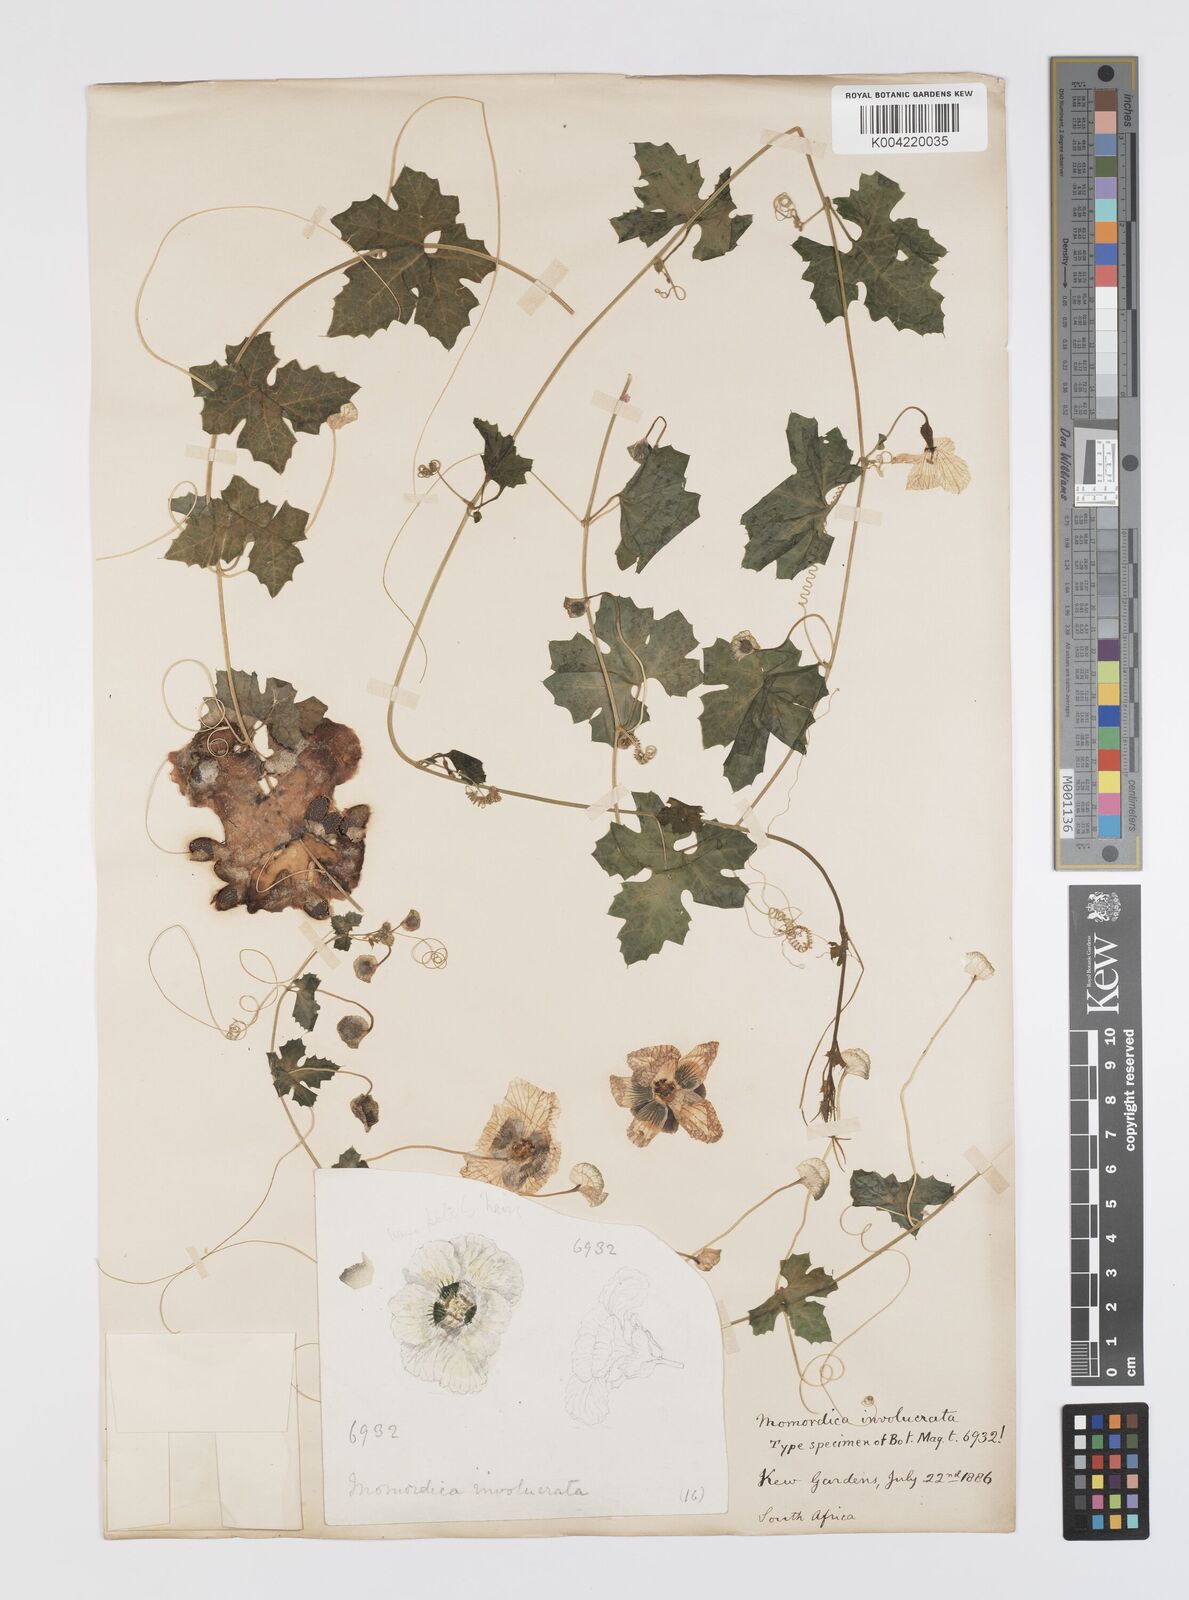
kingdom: Plantae
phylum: Tracheophyta
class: Magnoliopsida
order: Cucurbitales
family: Cucurbitaceae
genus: Momordica
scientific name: Momordica balsamina
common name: Southern balsampear
